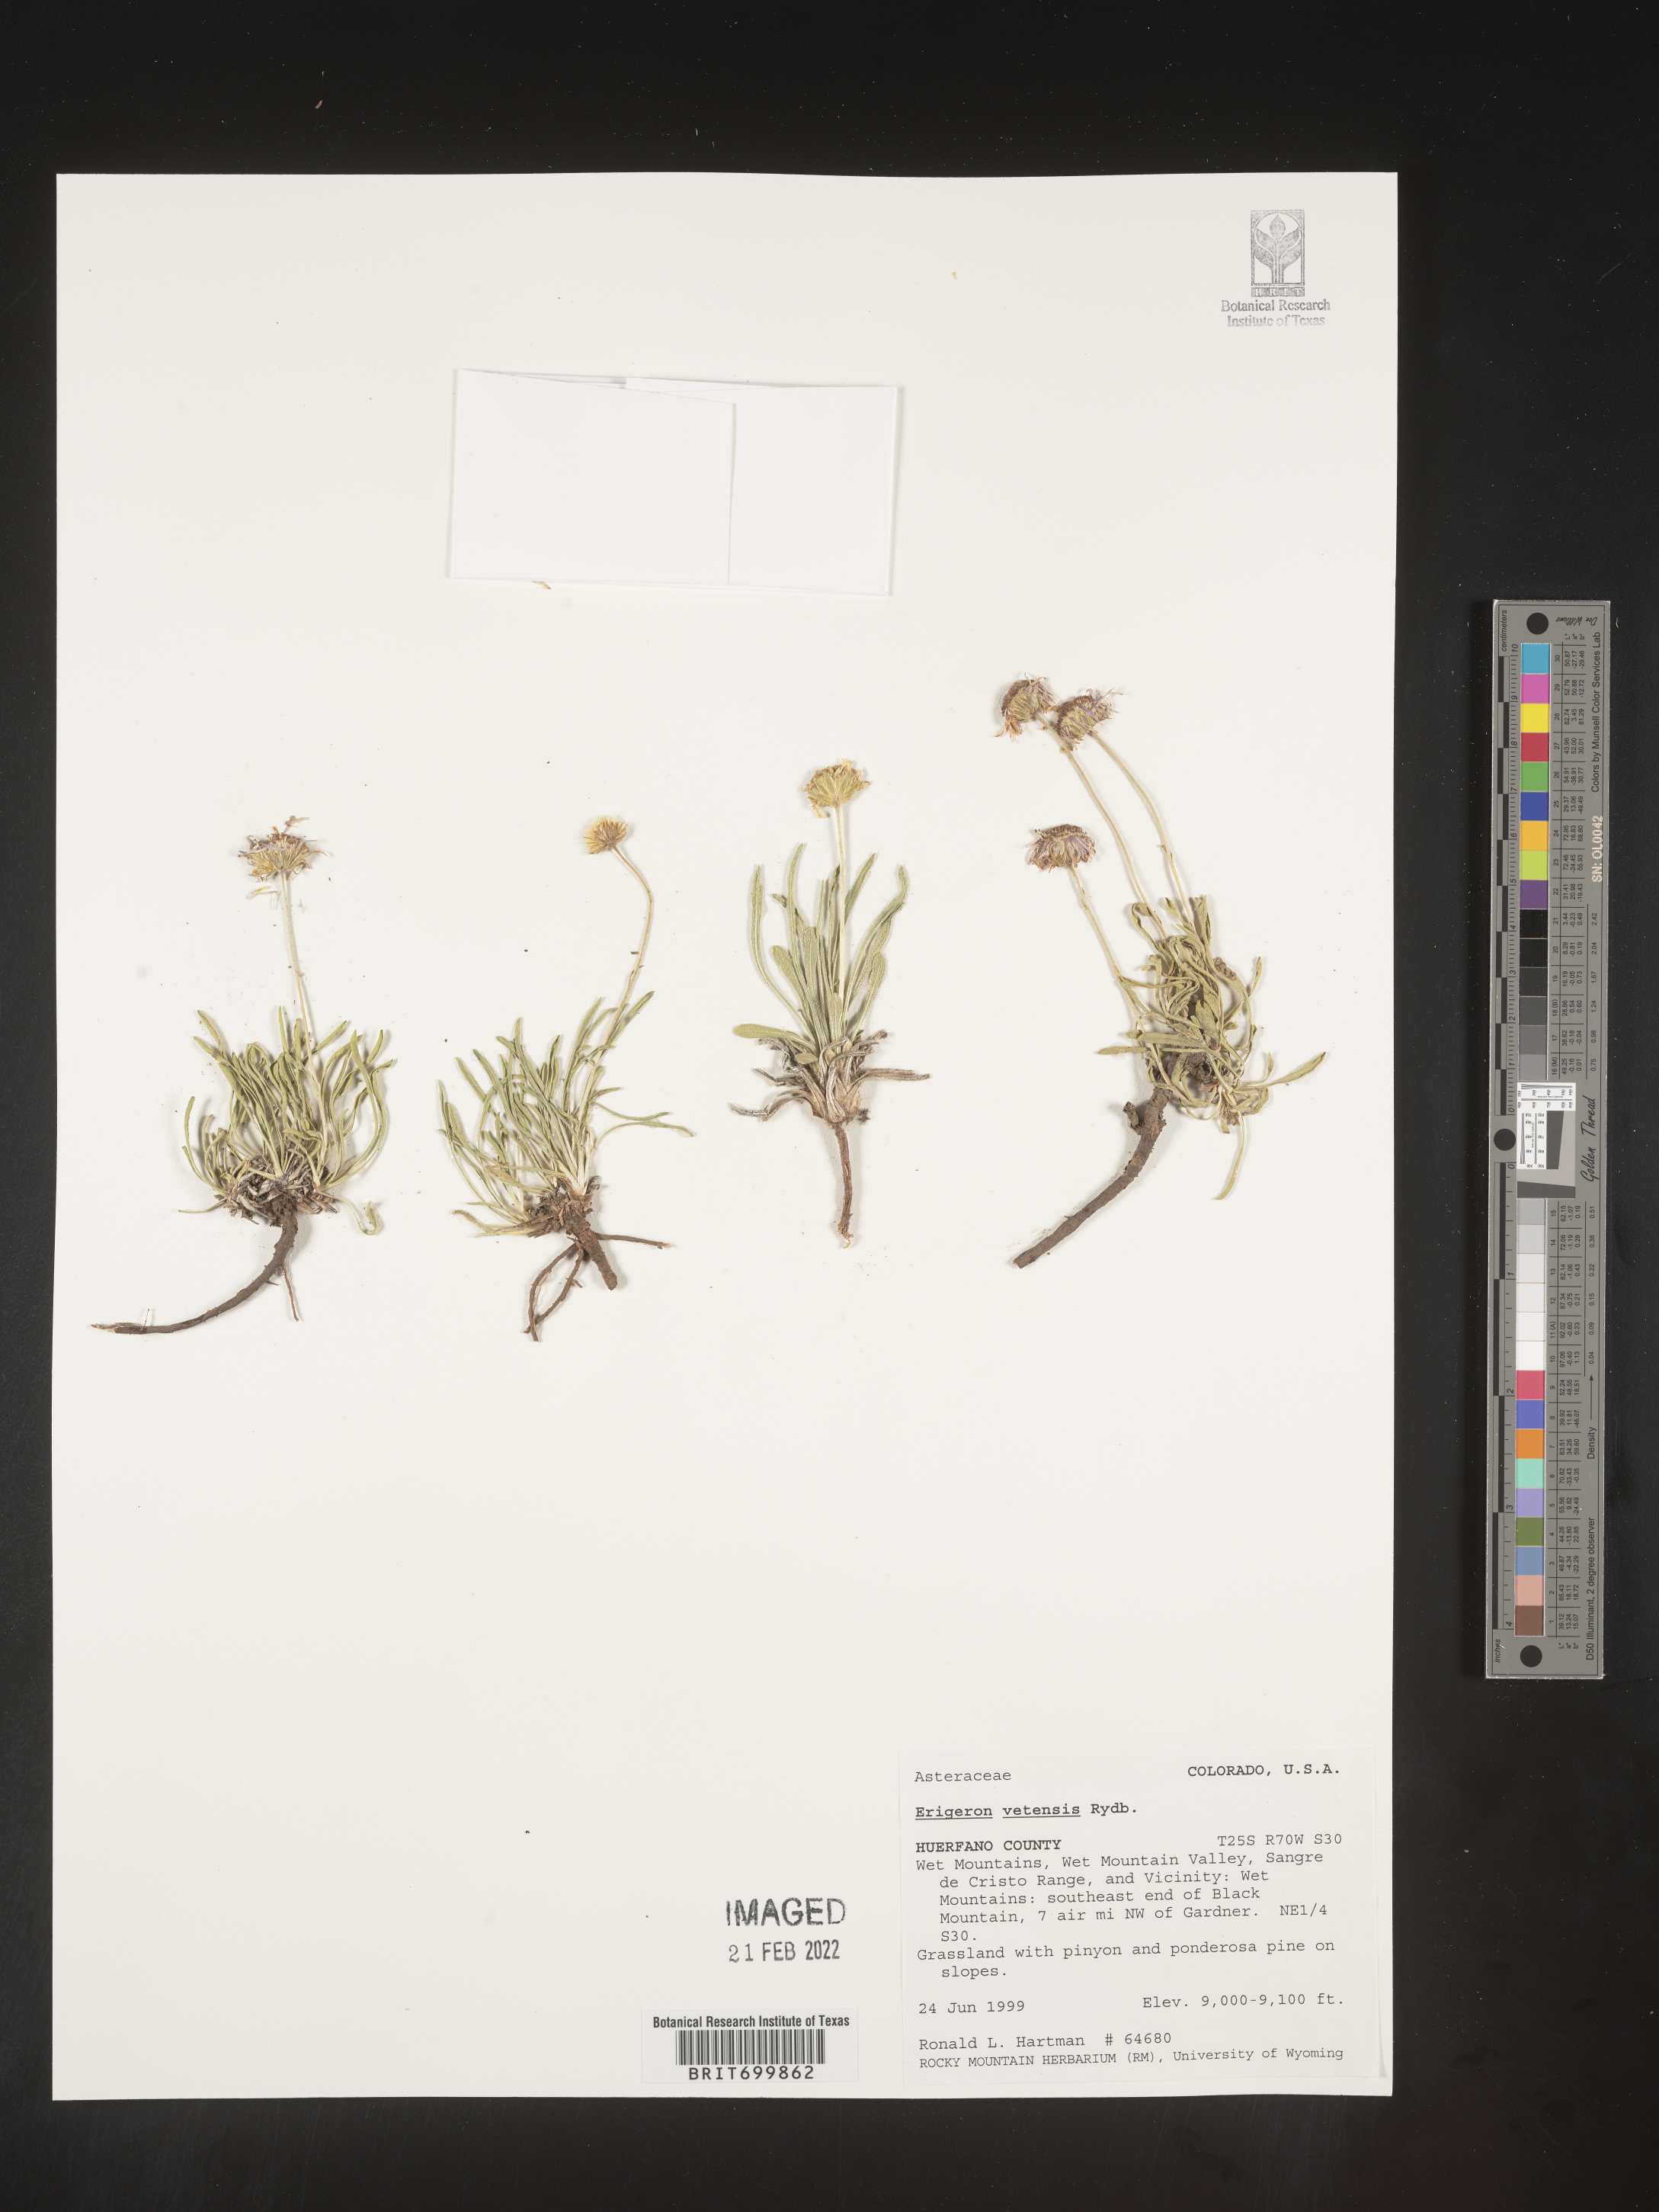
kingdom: Plantae
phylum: Tracheophyta
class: Magnoliopsida
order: Asterales
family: Asteraceae
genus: Erigeron
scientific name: Erigeron vetensis
